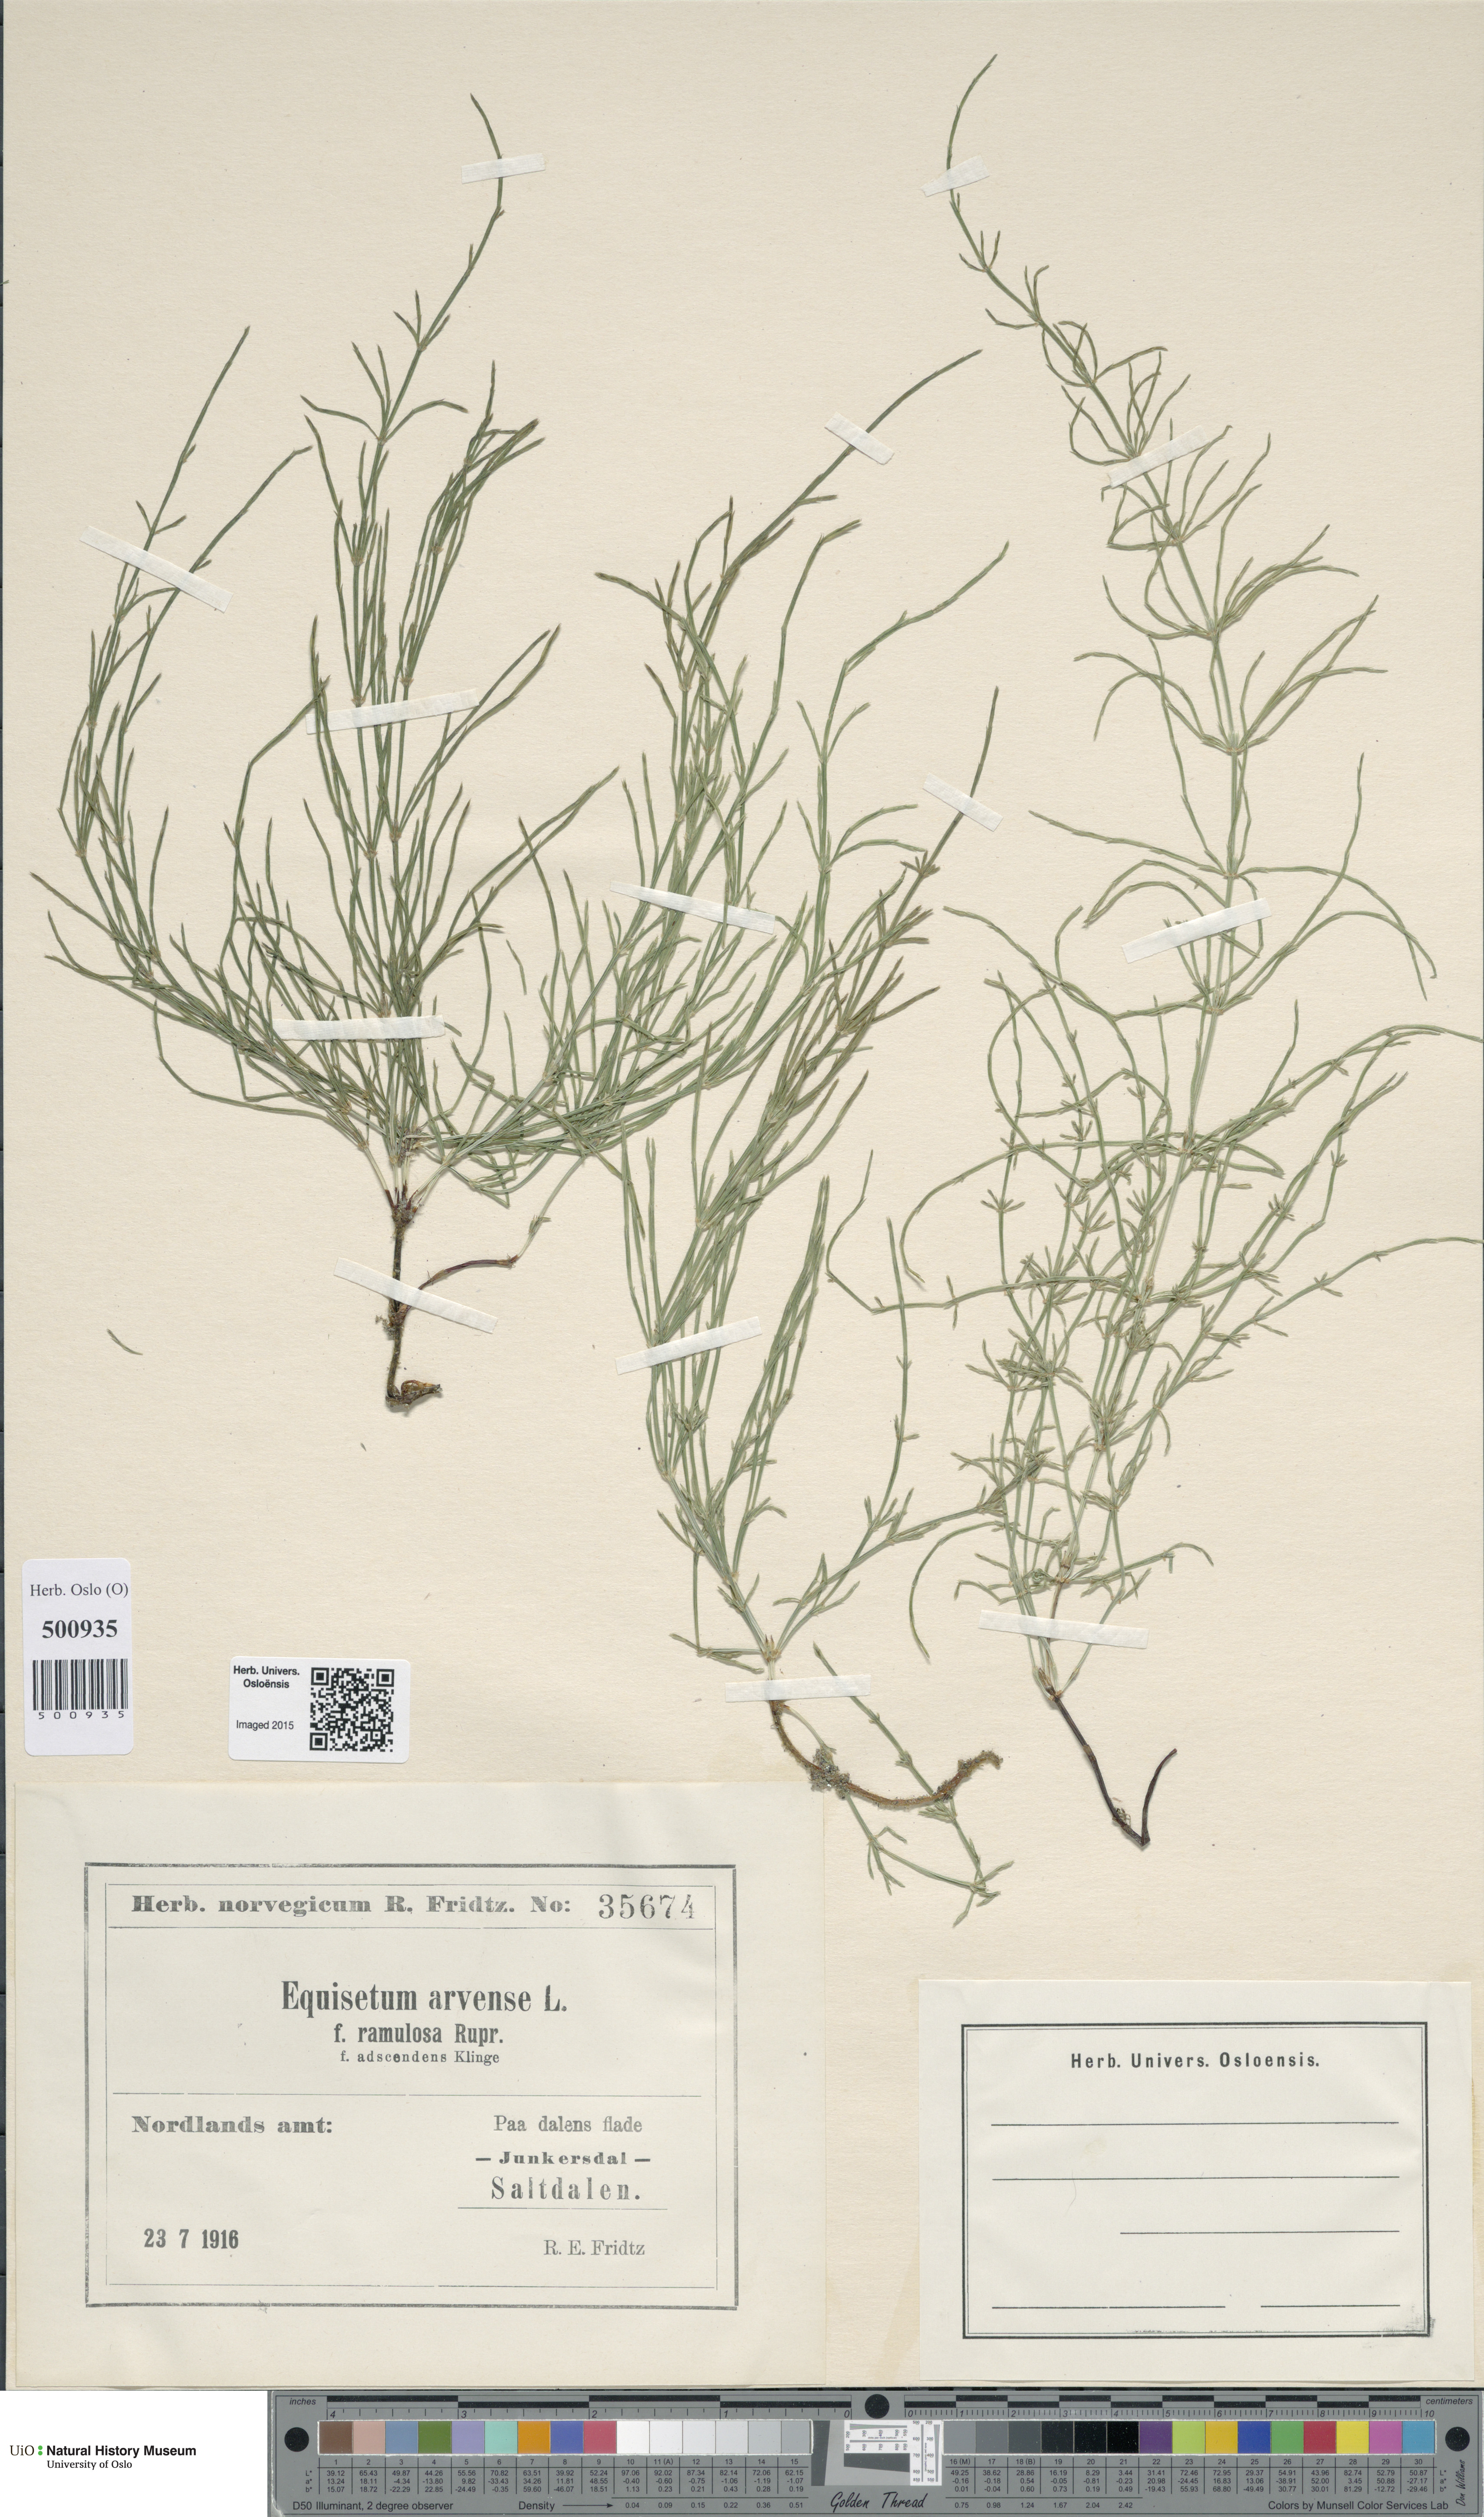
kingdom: Plantae
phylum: Tracheophyta
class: Polypodiopsida
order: Equisetales
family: Equisetaceae
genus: Equisetum
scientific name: Equisetum arvense
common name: Field horsetail
